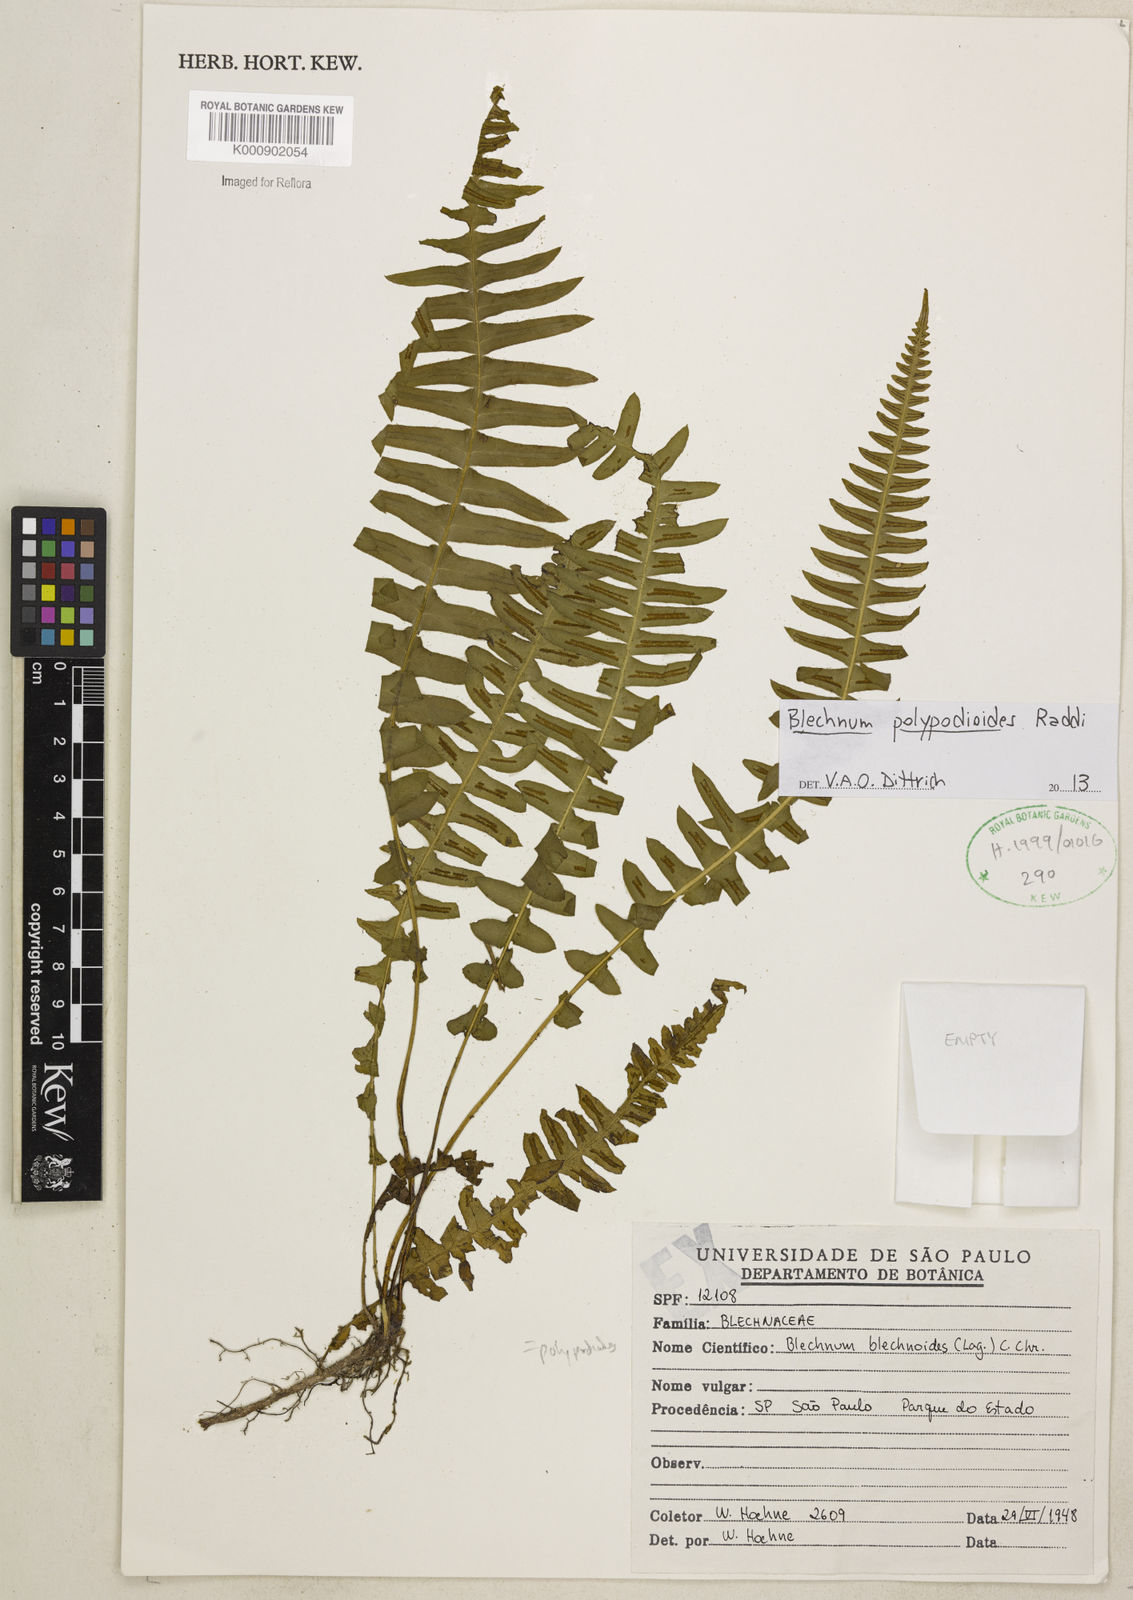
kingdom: Plantae
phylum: Tracheophyta
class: Polypodiopsida
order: Polypodiales
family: Blechnaceae
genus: Blechnum
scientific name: Blechnum polypodioides
